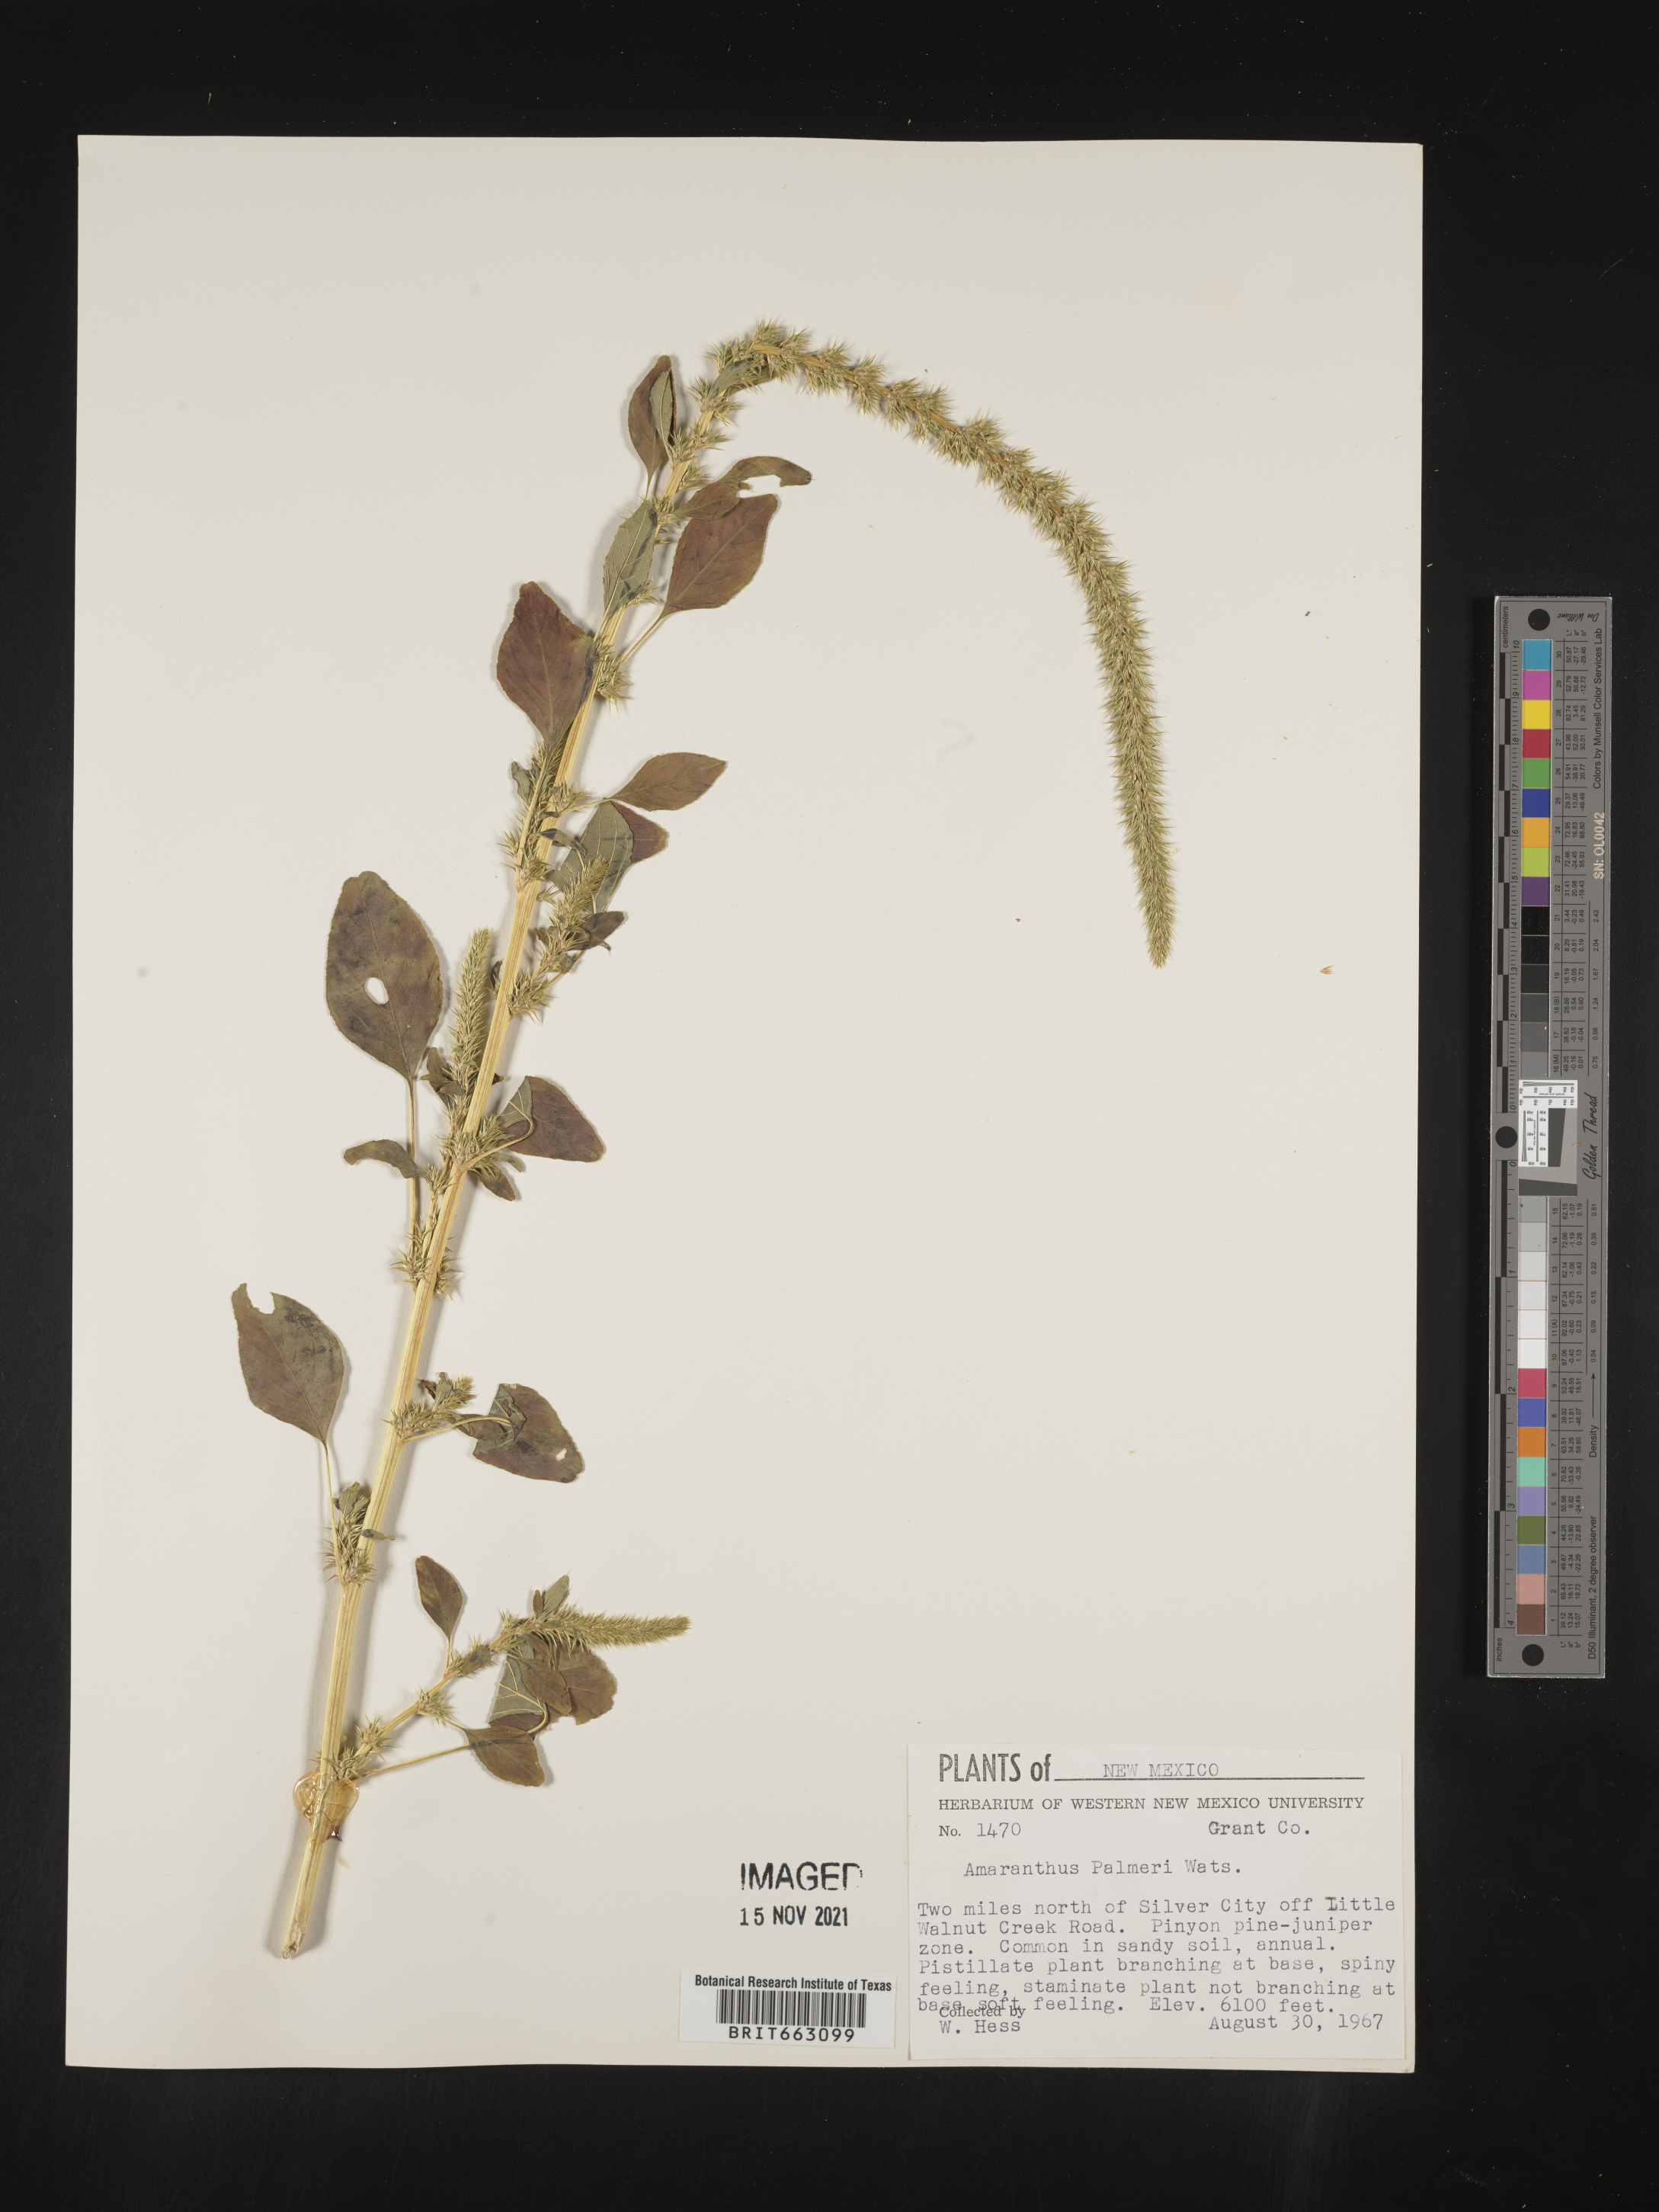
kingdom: Plantae
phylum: Tracheophyta
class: Magnoliopsida
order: Caryophyllales
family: Amaranthaceae
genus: Amaranthus
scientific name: Amaranthus palmeri
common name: Dioecious amaranth
